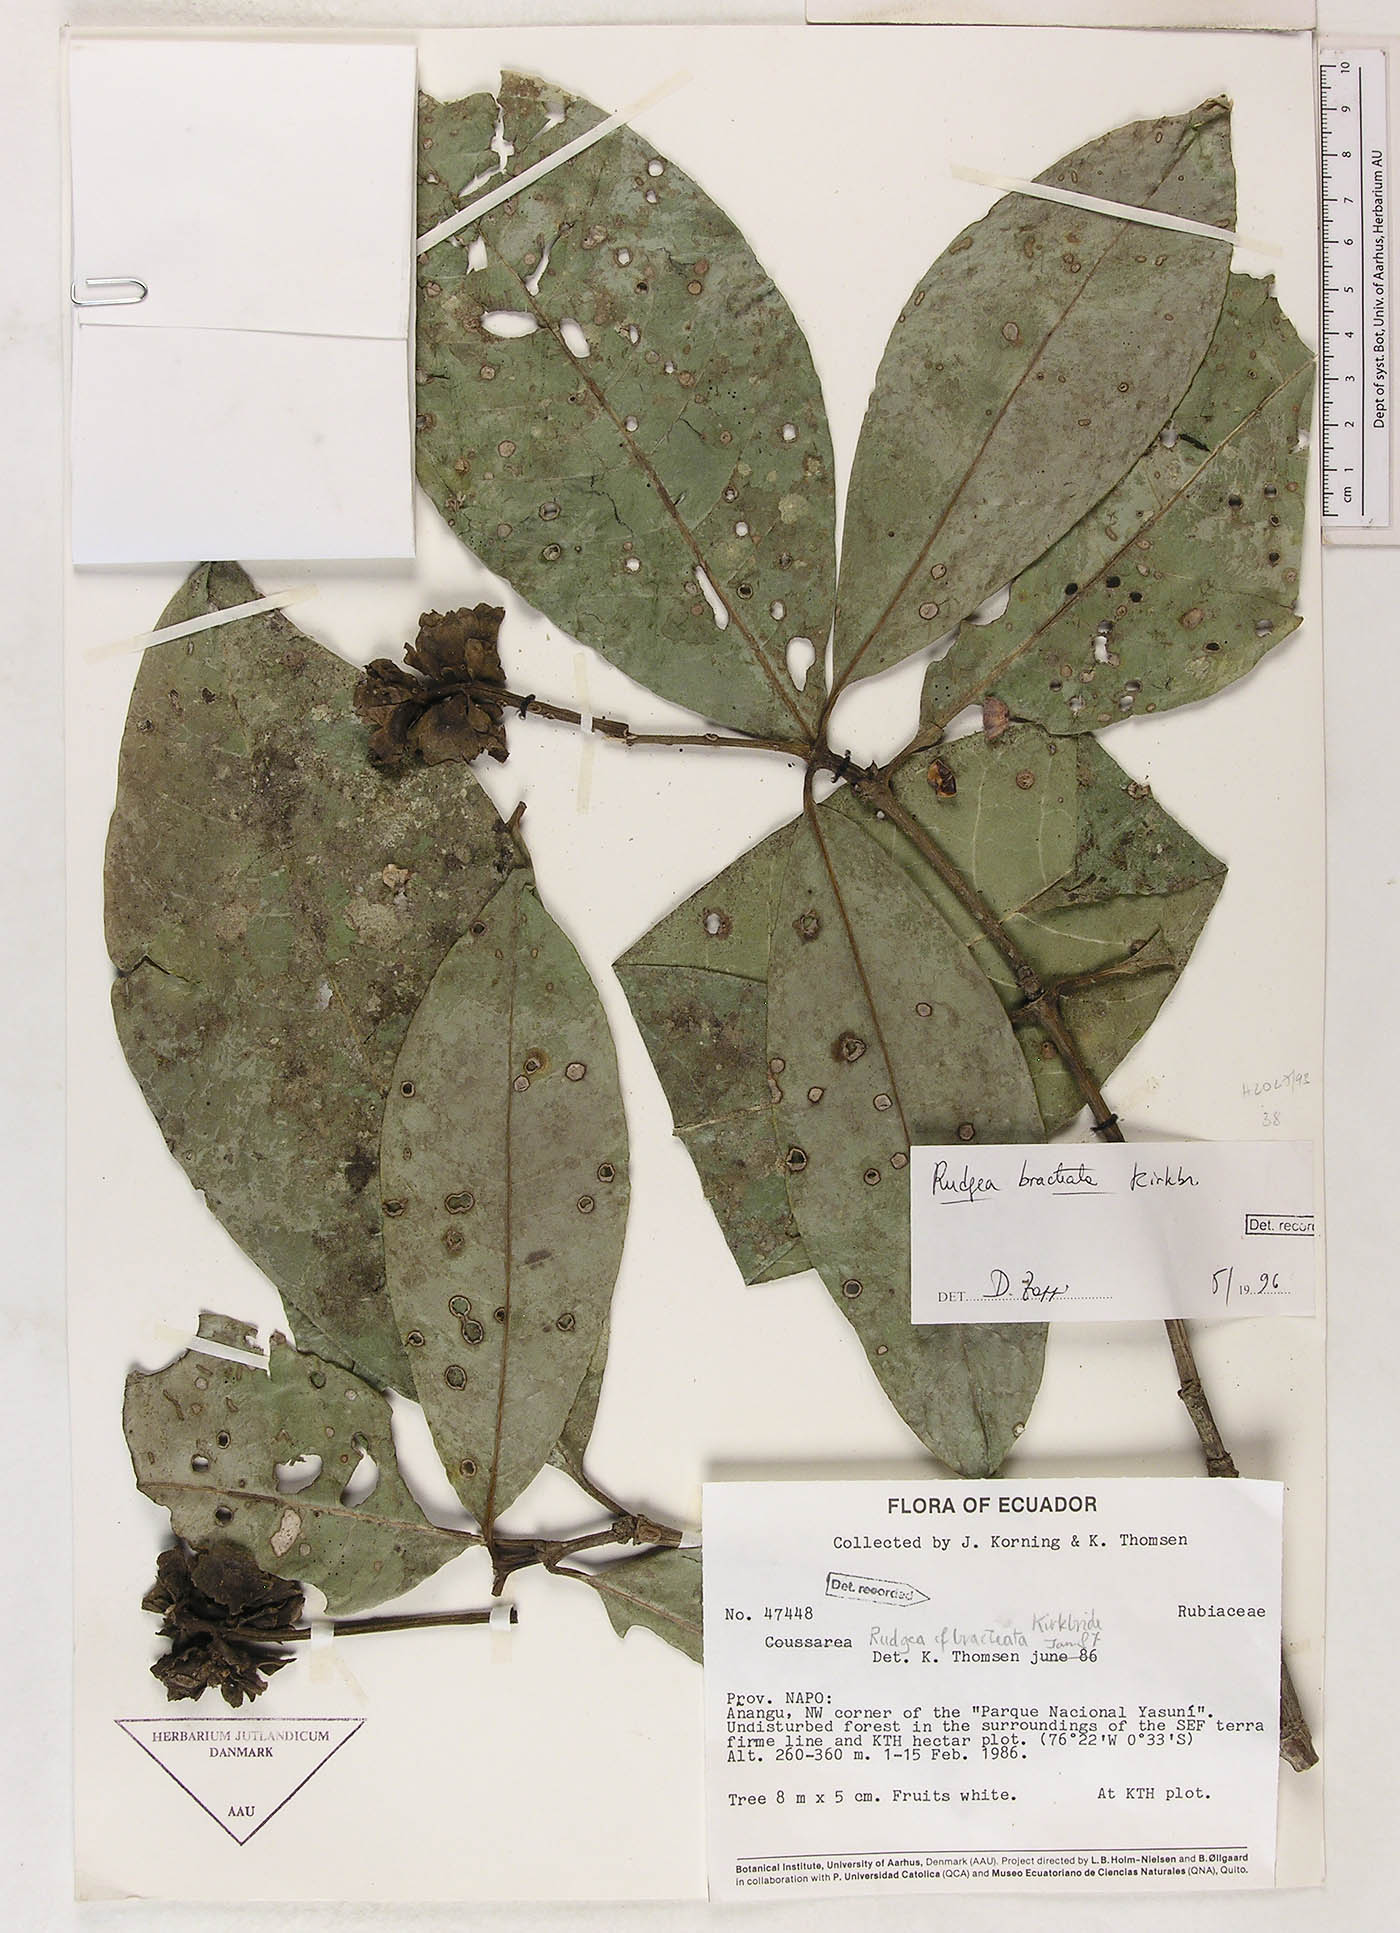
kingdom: Plantae
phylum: Tracheophyta
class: Magnoliopsida
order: Gentianales
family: Rubiaceae
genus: Rudgea
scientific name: Rudgea bracteata
